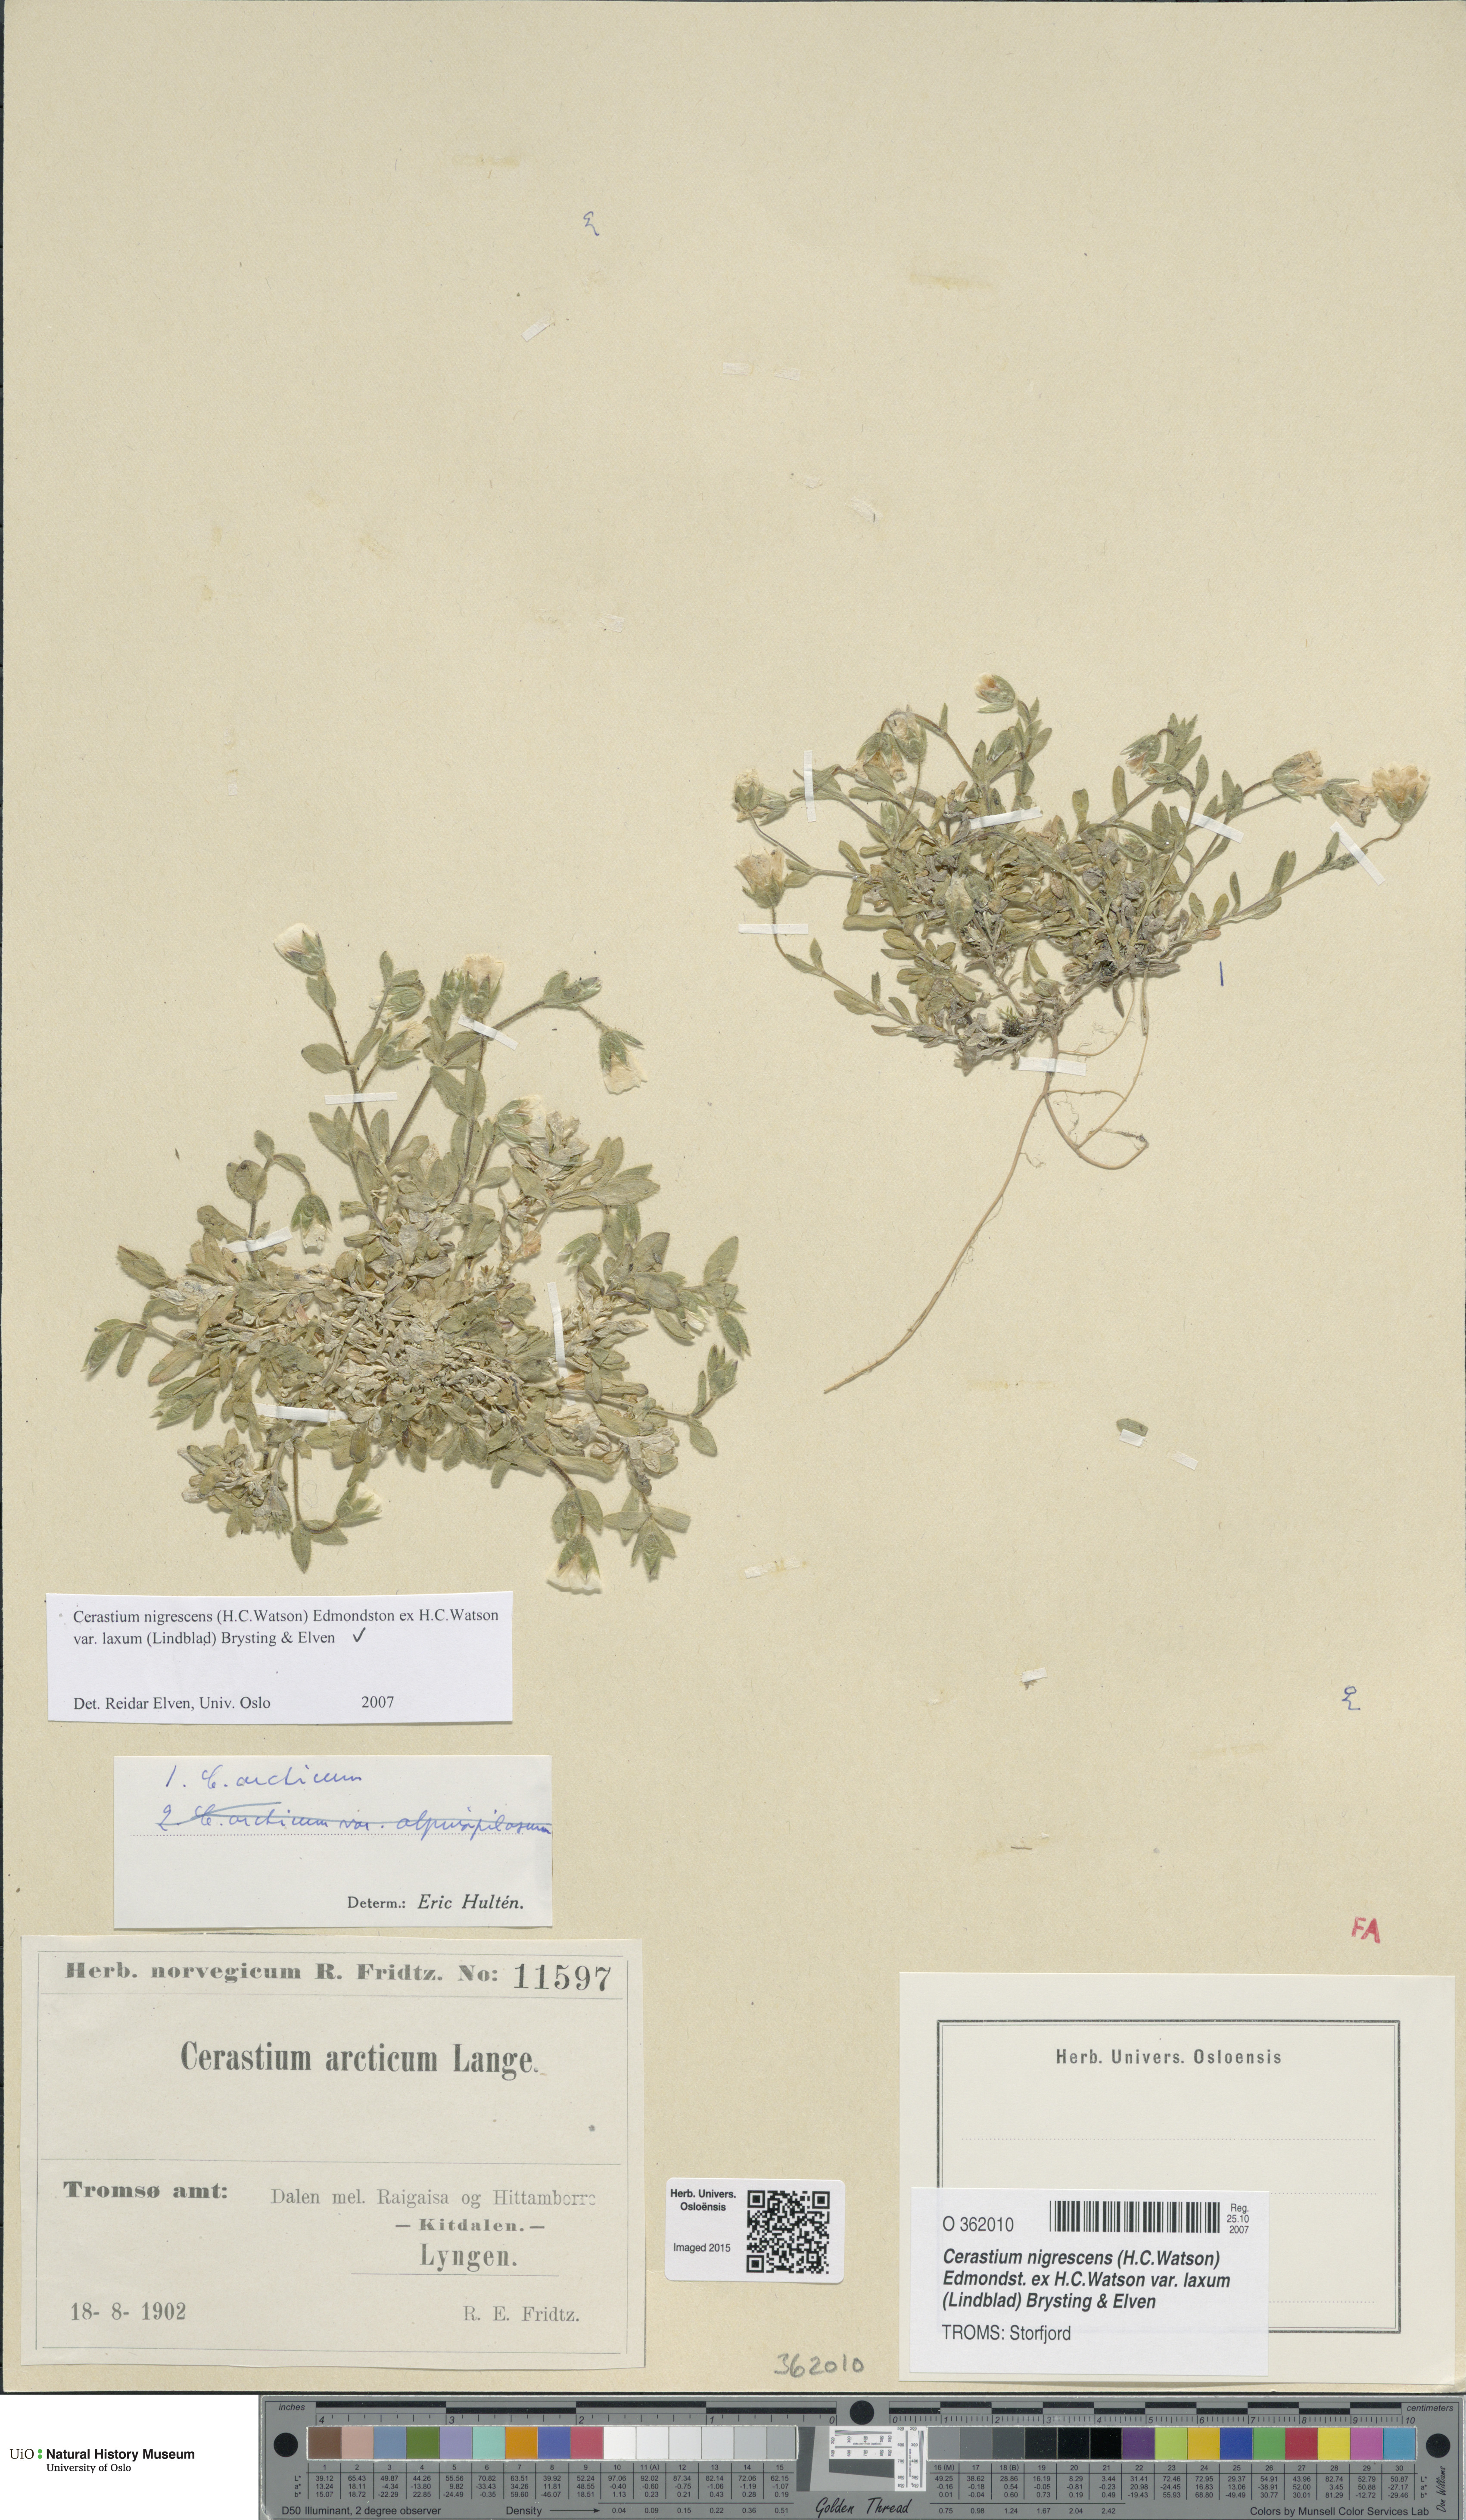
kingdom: Plantae
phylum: Tracheophyta
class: Magnoliopsida
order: Caryophyllales
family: Caryophyllaceae
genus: Cerastium
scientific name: Cerastium nigrescens
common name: Shetland mouse-ear
